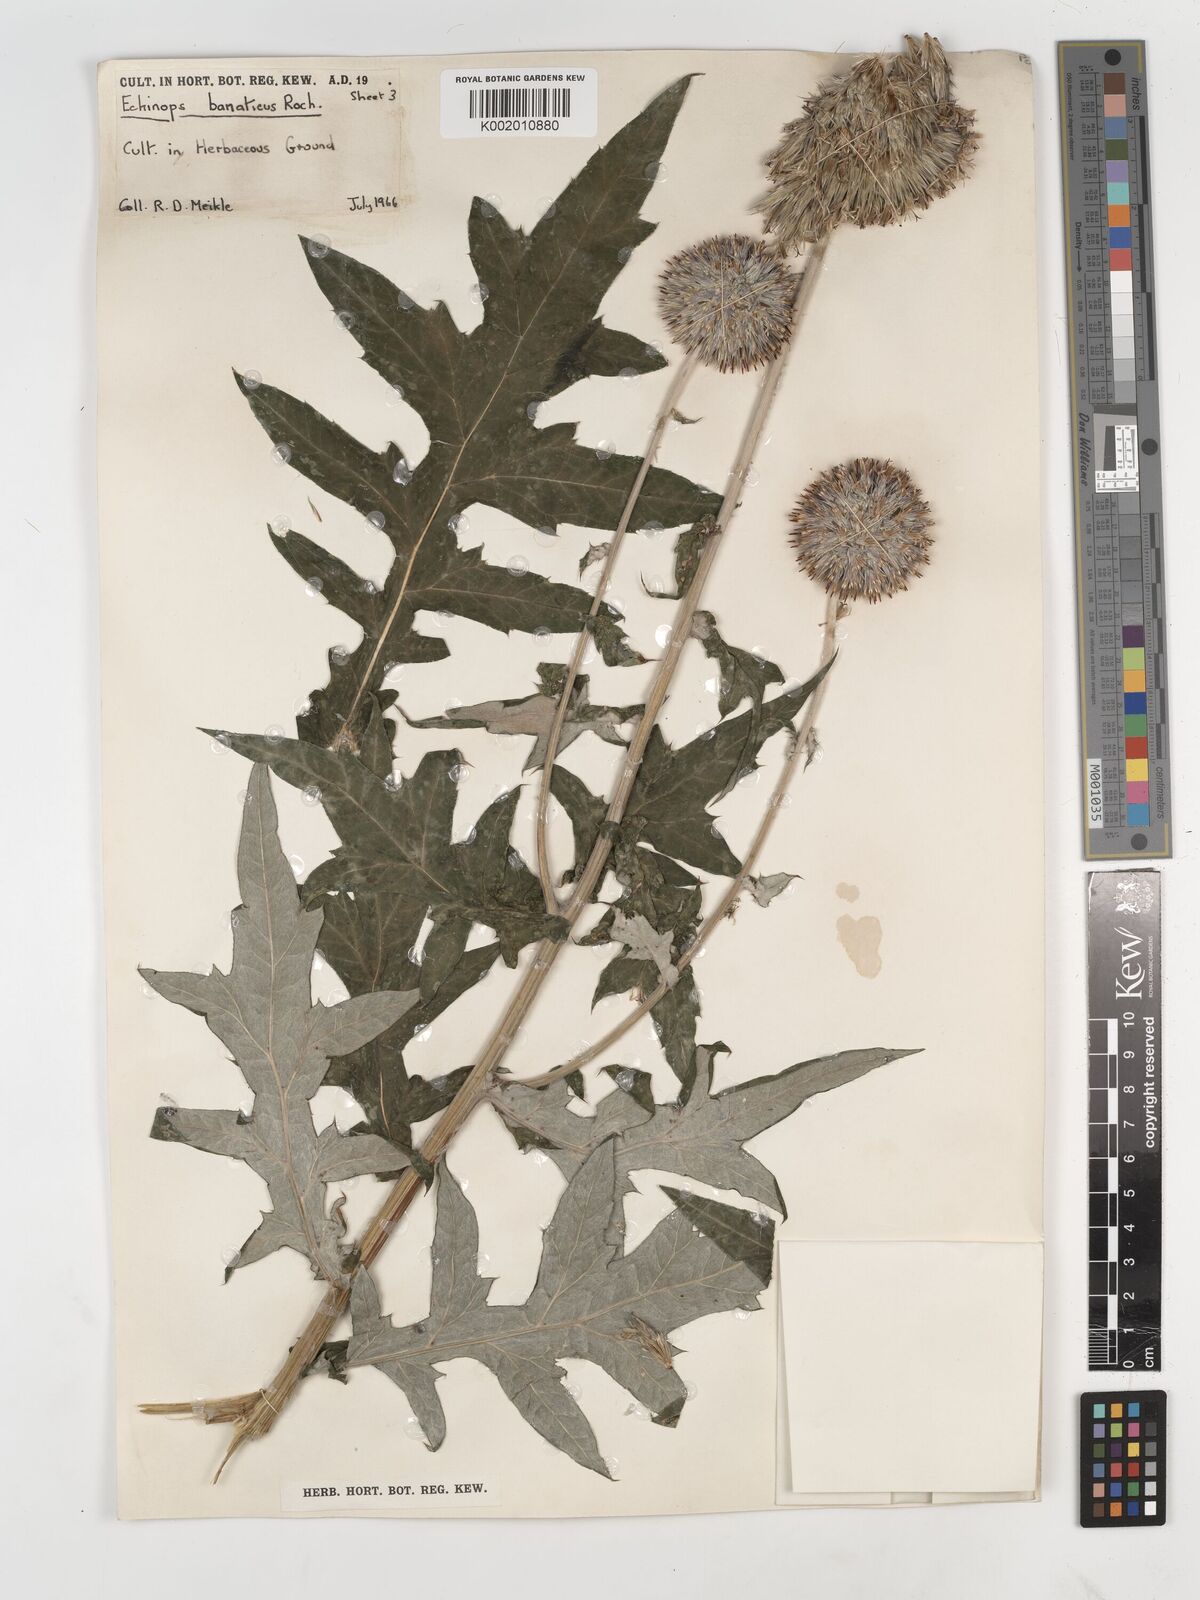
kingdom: Plantae
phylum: Tracheophyta
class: Magnoliopsida
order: Asterales
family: Asteraceae
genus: Echinops
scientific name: Echinops bannaticus
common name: Blue globe-thistle
